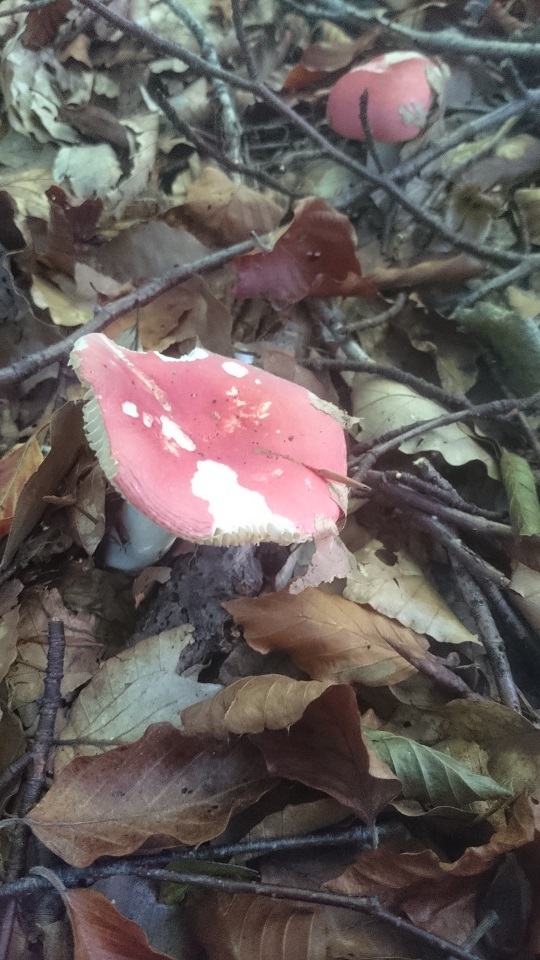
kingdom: Fungi
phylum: Basidiomycota
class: Agaricomycetes
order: Russulales
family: Russulaceae
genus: Russula
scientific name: Russula emetica
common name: stor gift-skørhat
